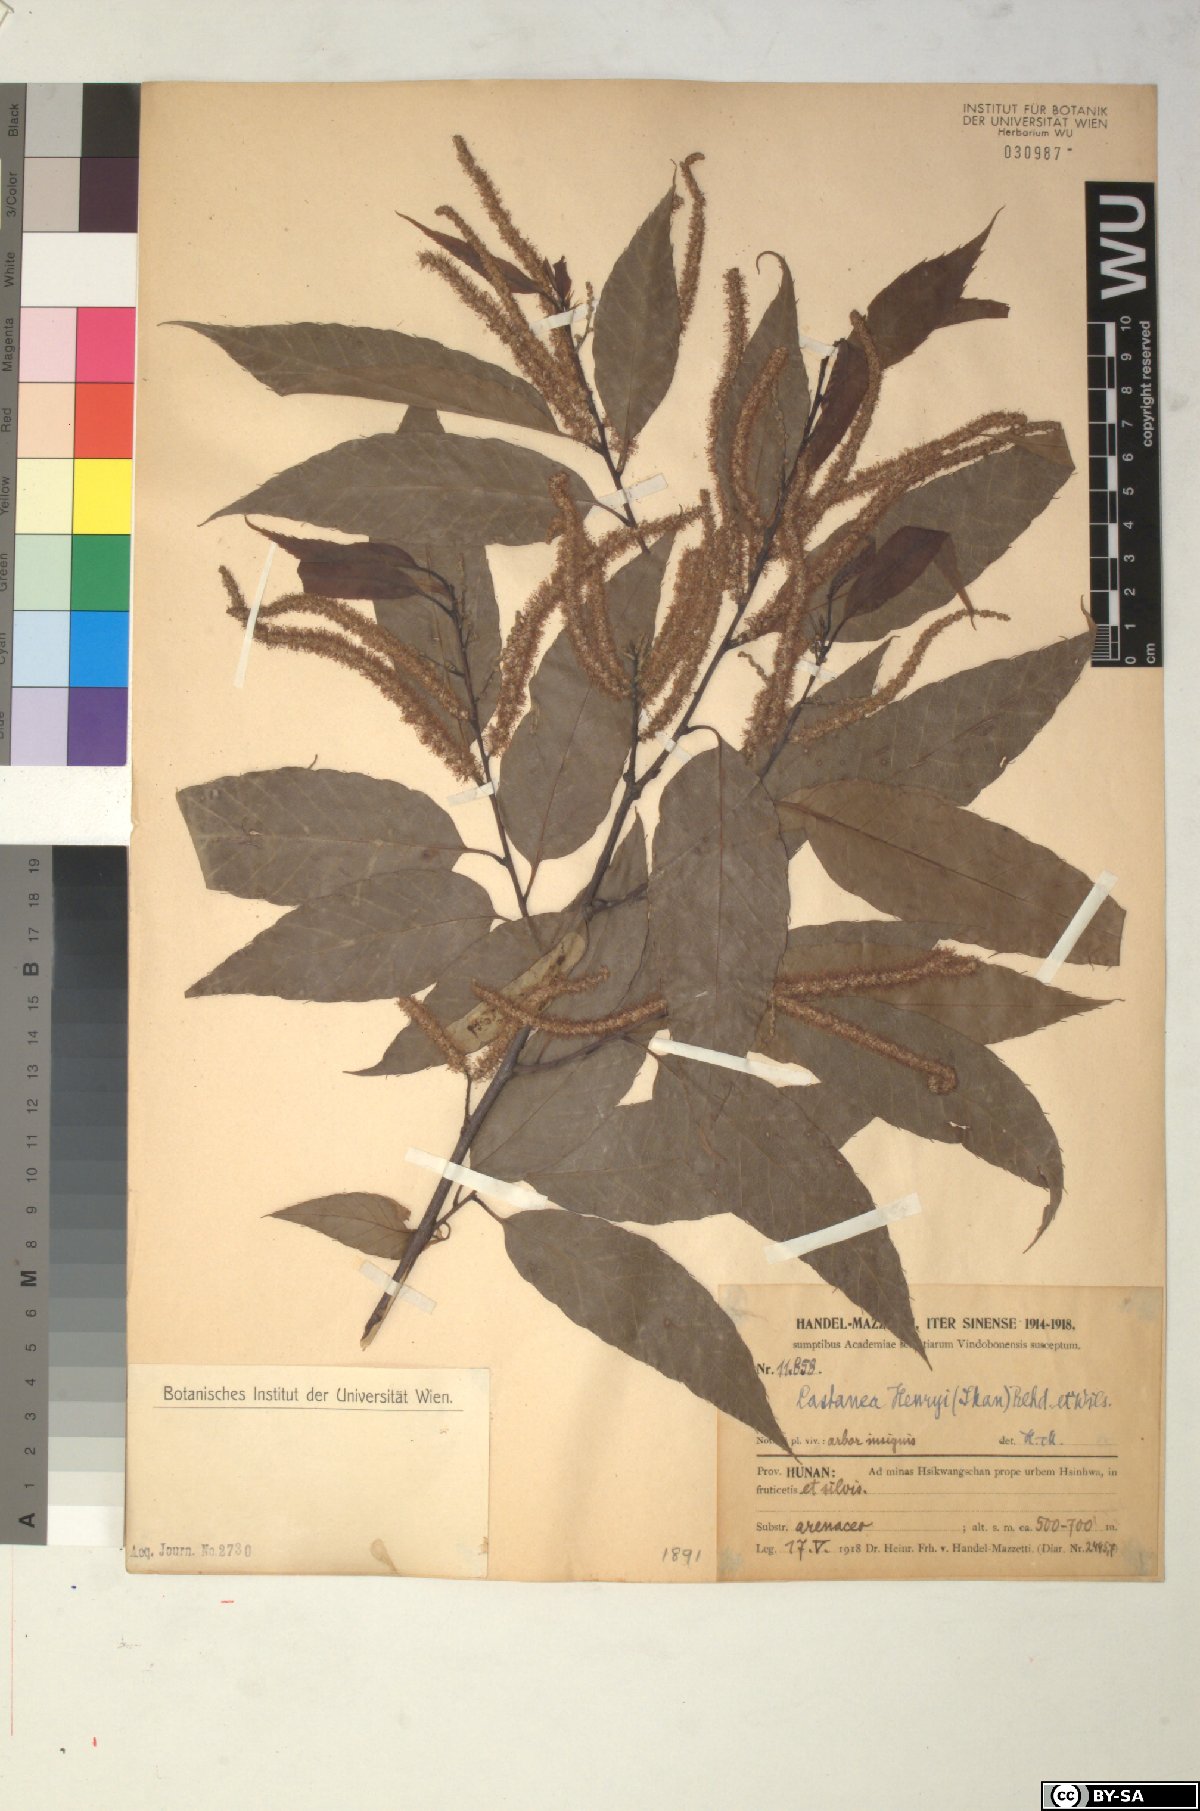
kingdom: Plantae
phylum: Tracheophyta
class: Magnoliopsida
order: Fagales
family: Fagaceae
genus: Castanea
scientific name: Castanea henryi
